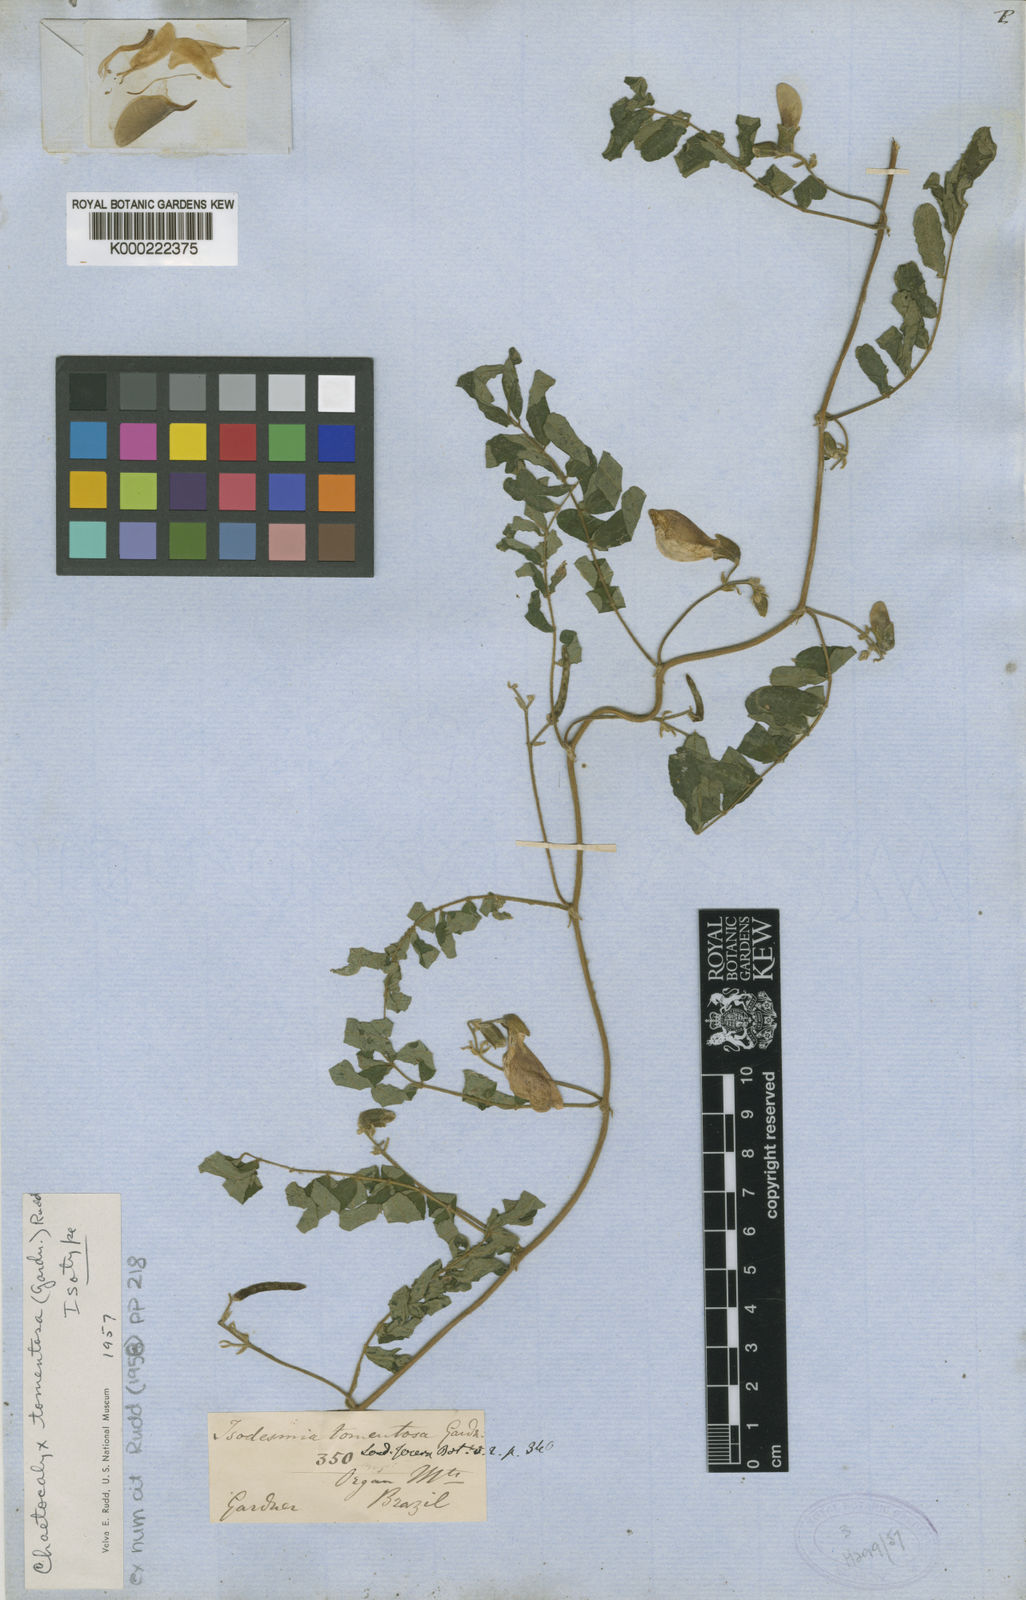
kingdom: Plantae
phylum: Tracheophyta
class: Magnoliopsida
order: Fabales
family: Fabaceae
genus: Nissolia
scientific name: Nissolia tomentosa
